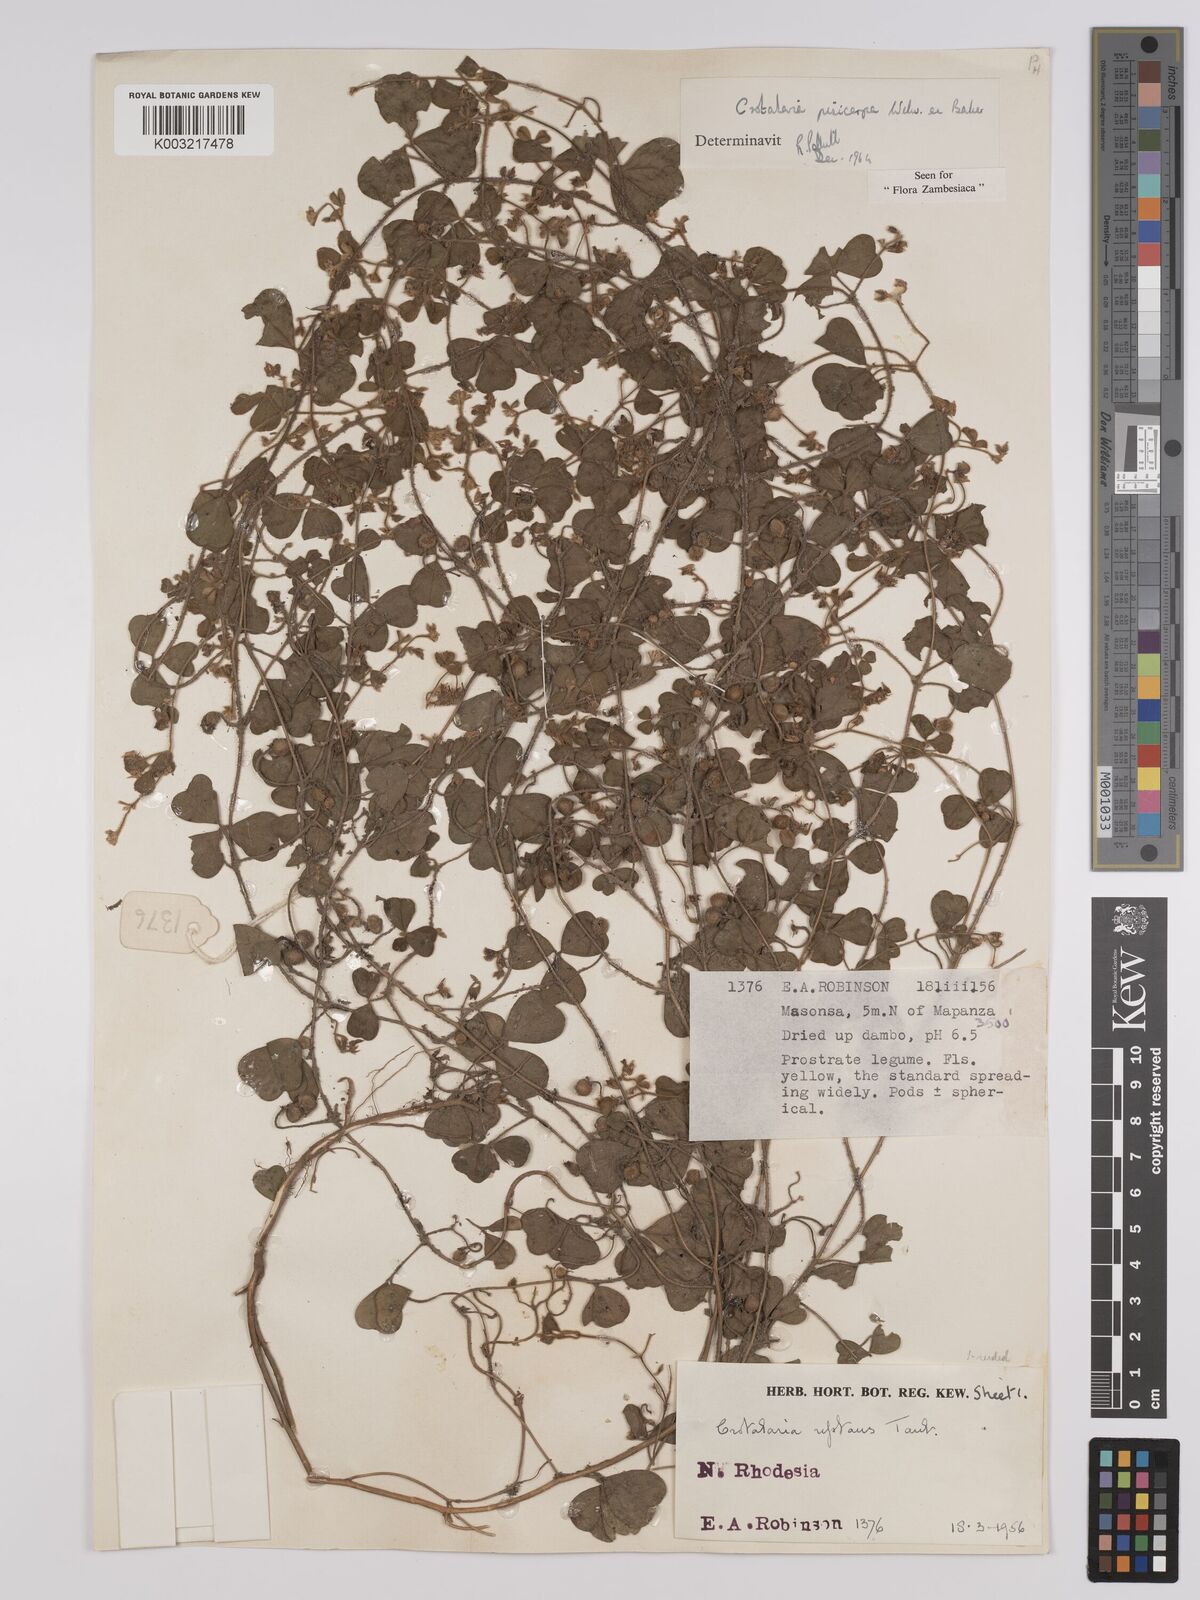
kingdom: Plantae
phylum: Tracheophyta
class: Magnoliopsida
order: Fabales
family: Fabaceae
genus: Crotalaria
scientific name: Crotalaria pisicarpa
